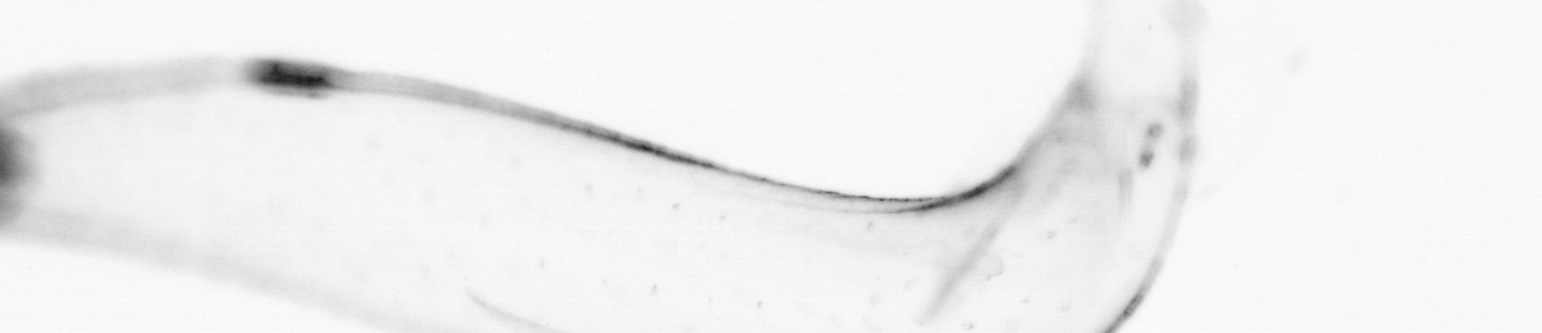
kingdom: Animalia
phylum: Chaetognatha
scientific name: Chaetognatha
